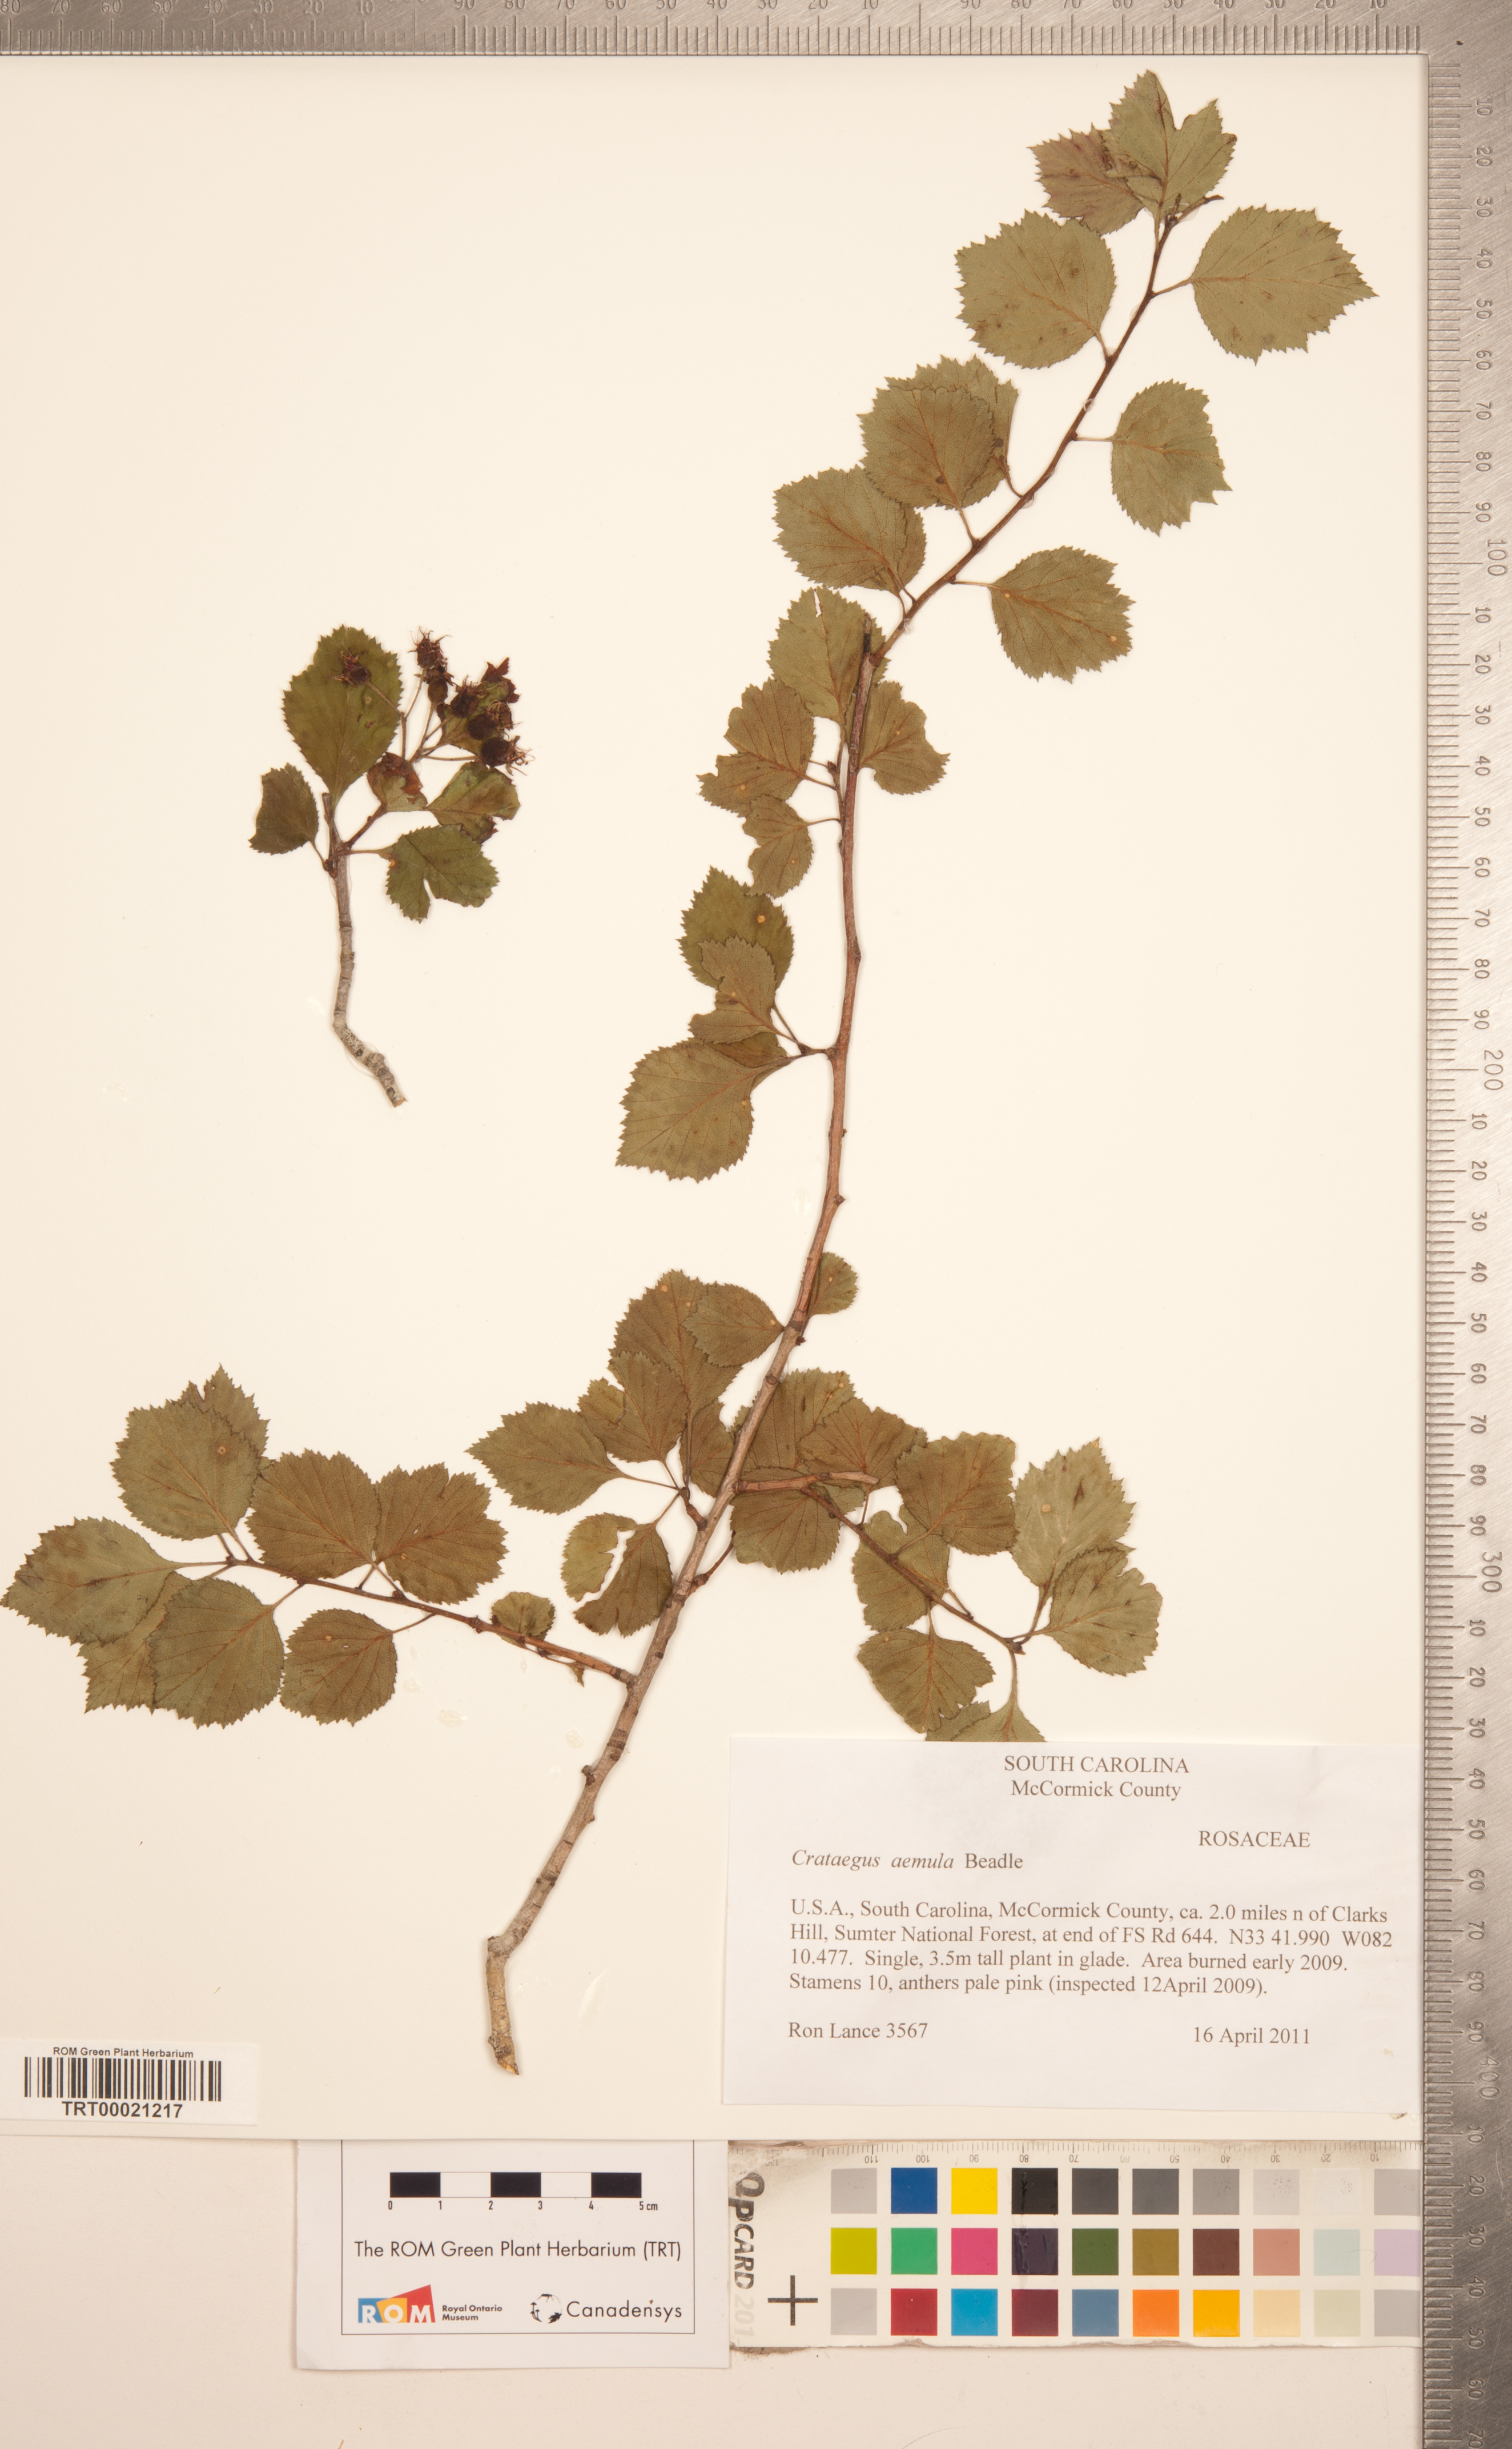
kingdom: Plantae
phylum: Tracheophyta
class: Magnoliopsida
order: Rosales
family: Rosaceae
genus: Crataegus
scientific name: Crataegus iracunda
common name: Stolon-bearing hawthorn
